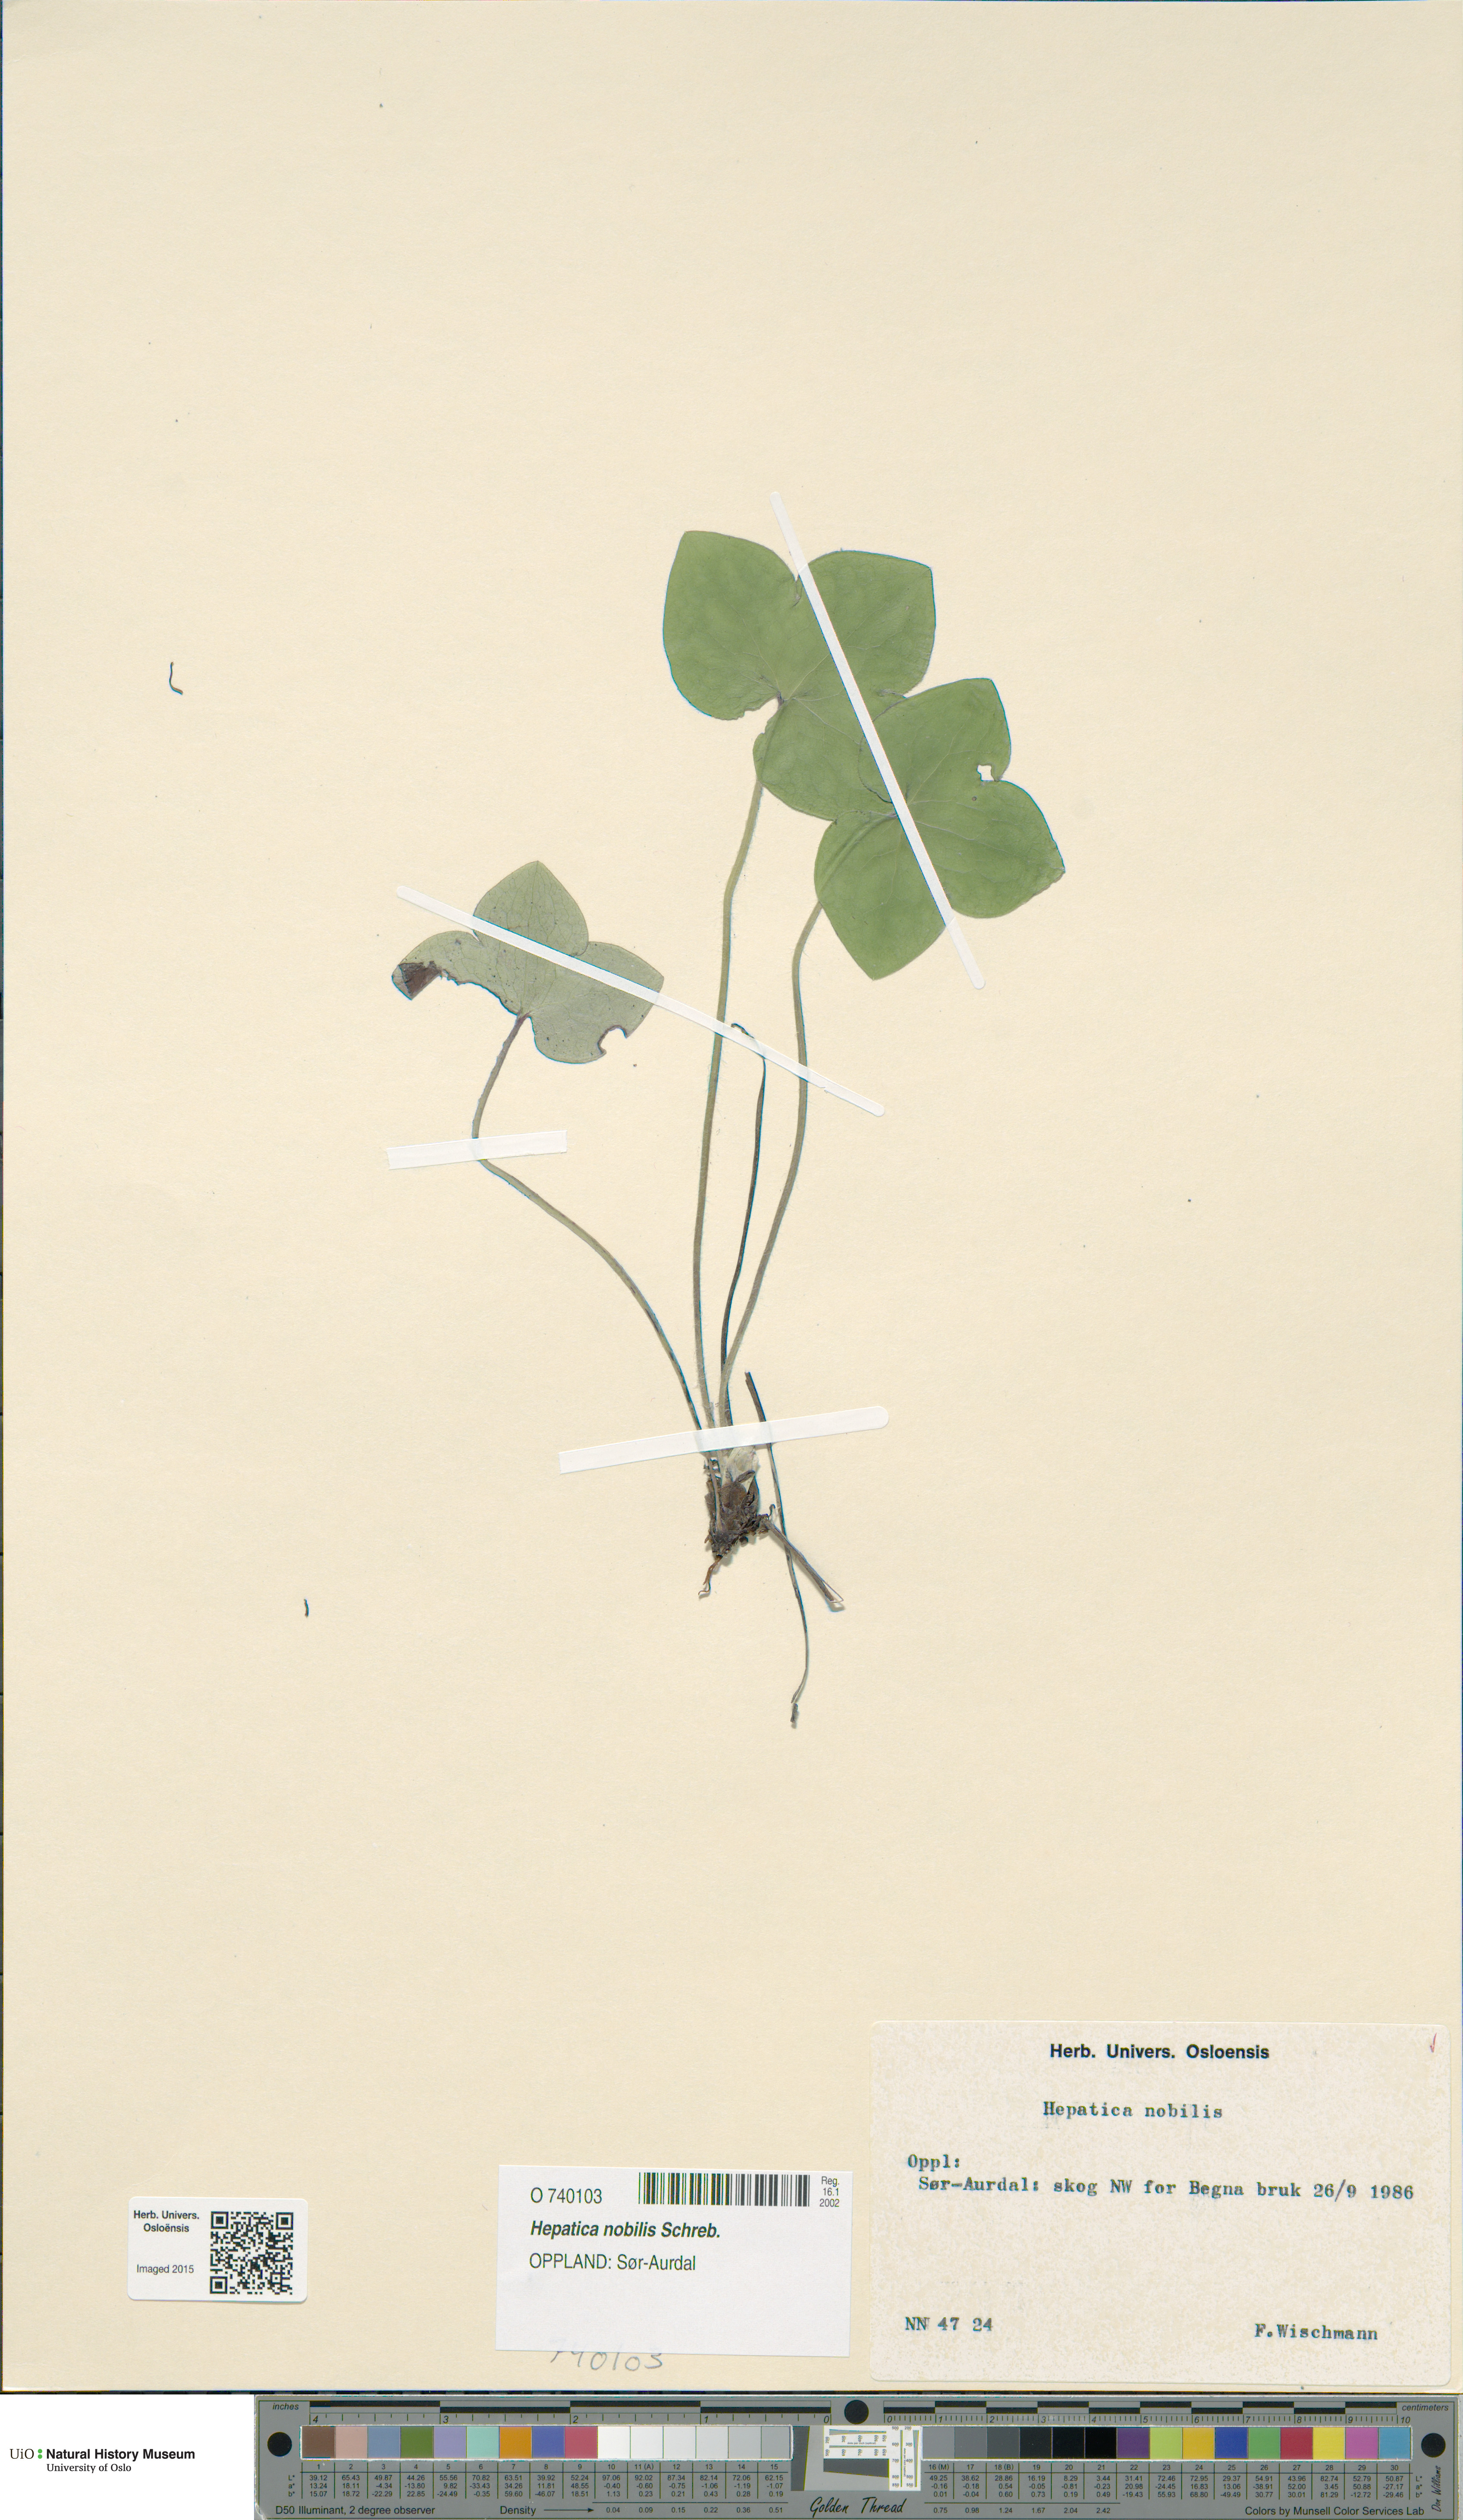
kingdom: Plantae
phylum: Tracheophyta
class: Magnoliopsida
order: Ranunculales
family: Ranunculaceae
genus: Hepatica
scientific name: Hepatica nobilis
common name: Liverleaf
